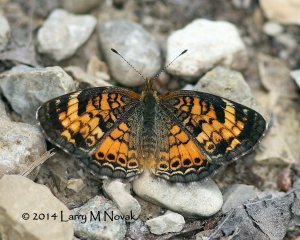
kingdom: Animalia
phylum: Arthropoda
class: Insecta
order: Lepidoptera
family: Nymphalidae
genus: Phyciodes
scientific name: Phyciodes tharos
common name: Pearl Crescent
